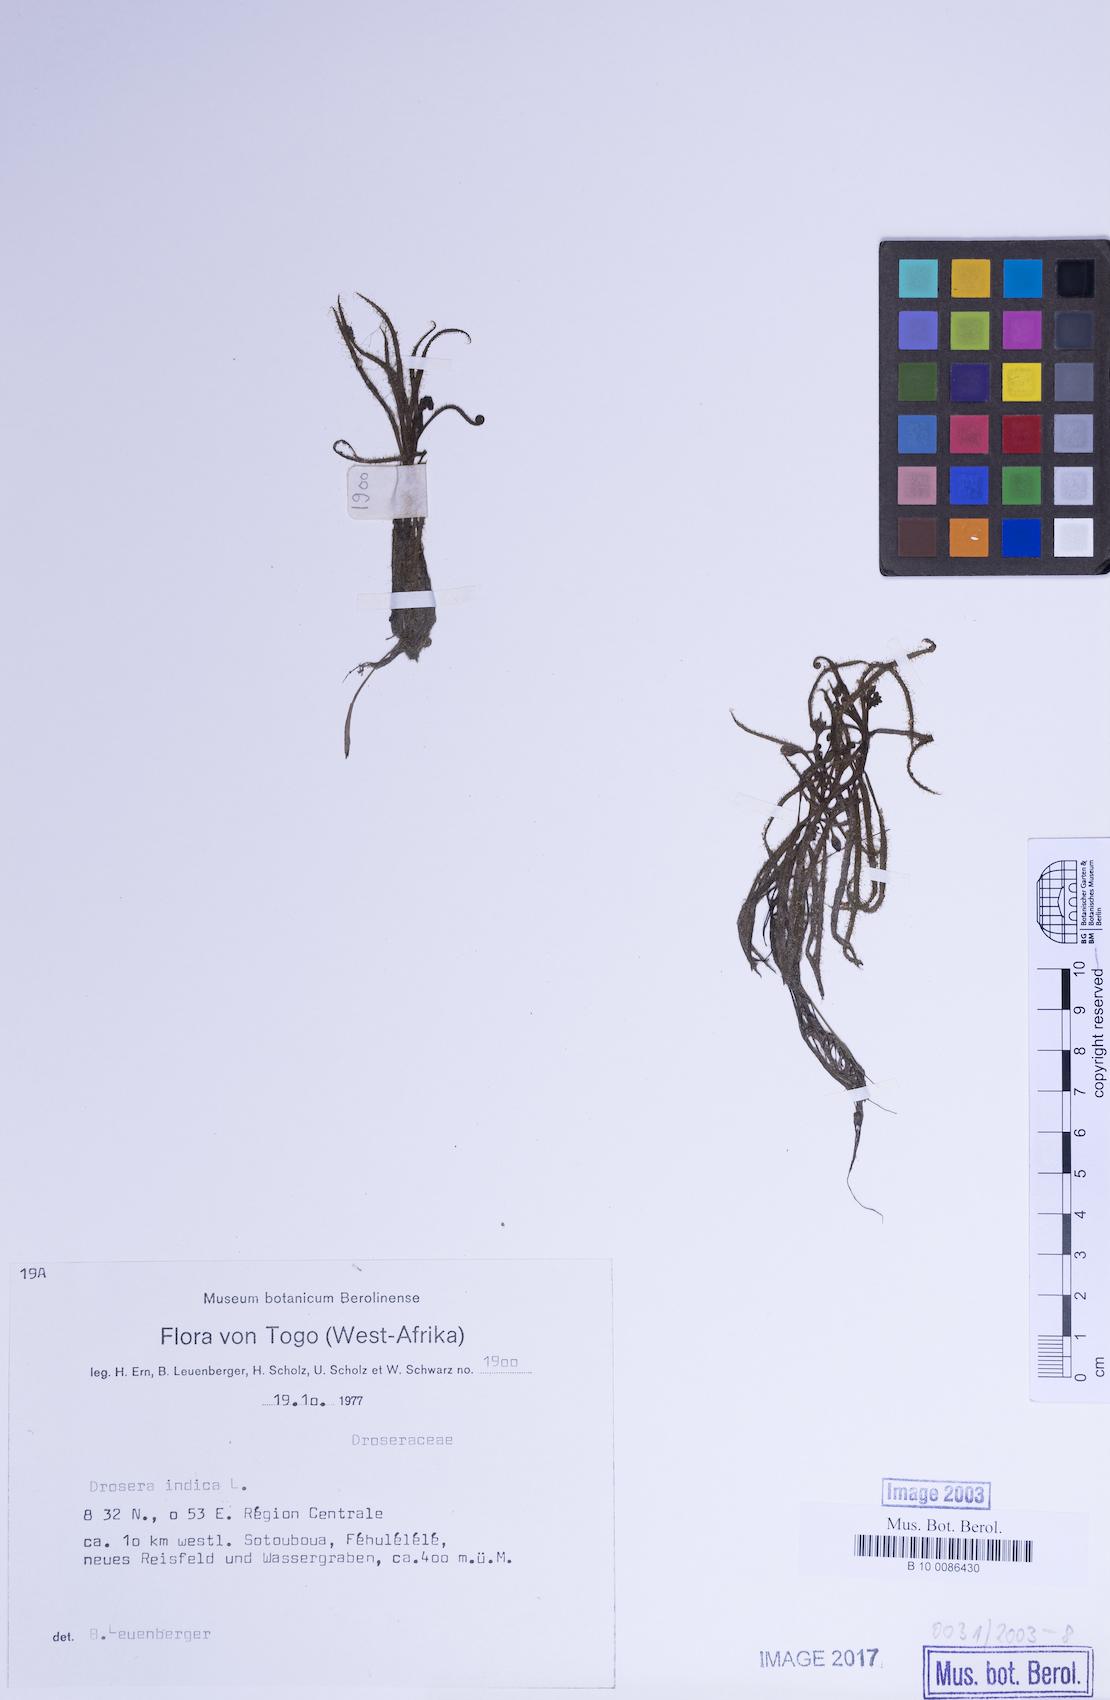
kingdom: Plantae
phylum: Tracheophyta
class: Magnoliopsida
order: Caryophyllales
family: Droseraceae
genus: Drosera
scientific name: Drosera indica
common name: Indian sundew
